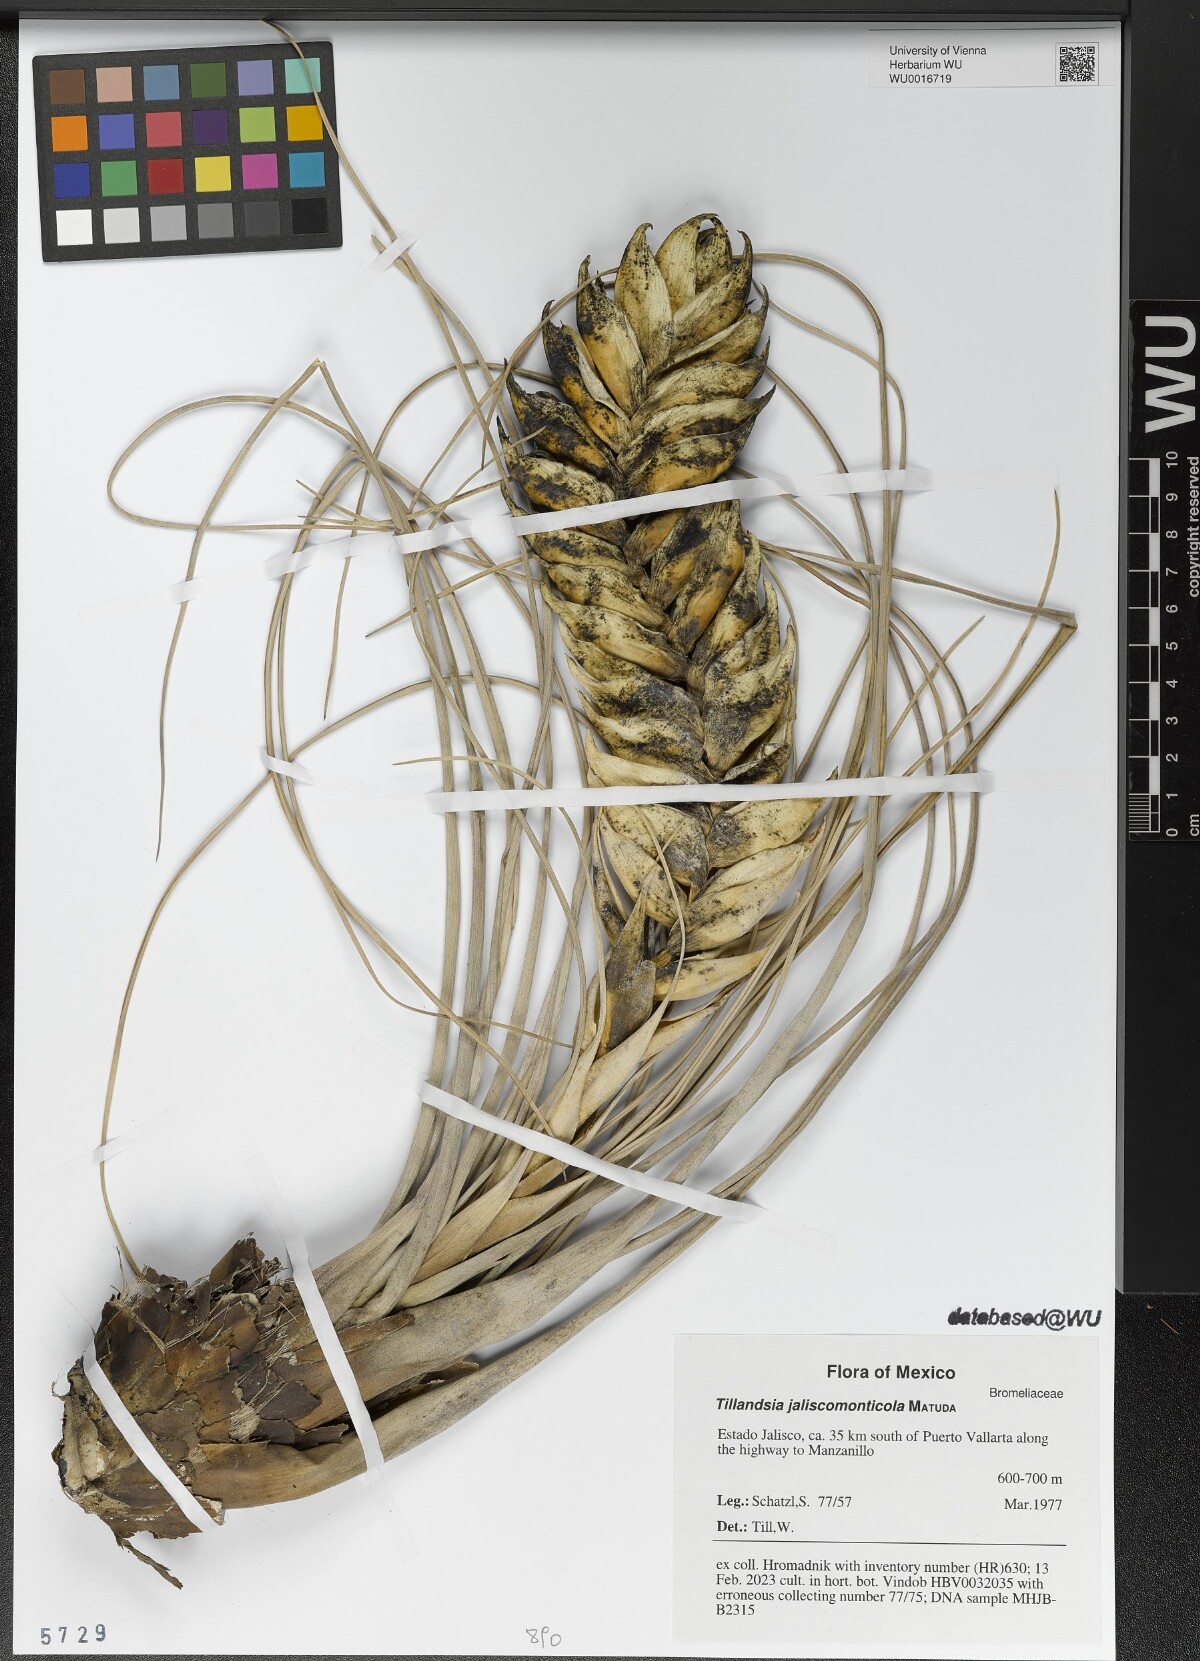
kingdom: Plantae
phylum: Tracheophyta
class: Liliopsida
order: Poales
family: Bromeliaceae
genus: Tillandsia
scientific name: Tillandsia compressa
